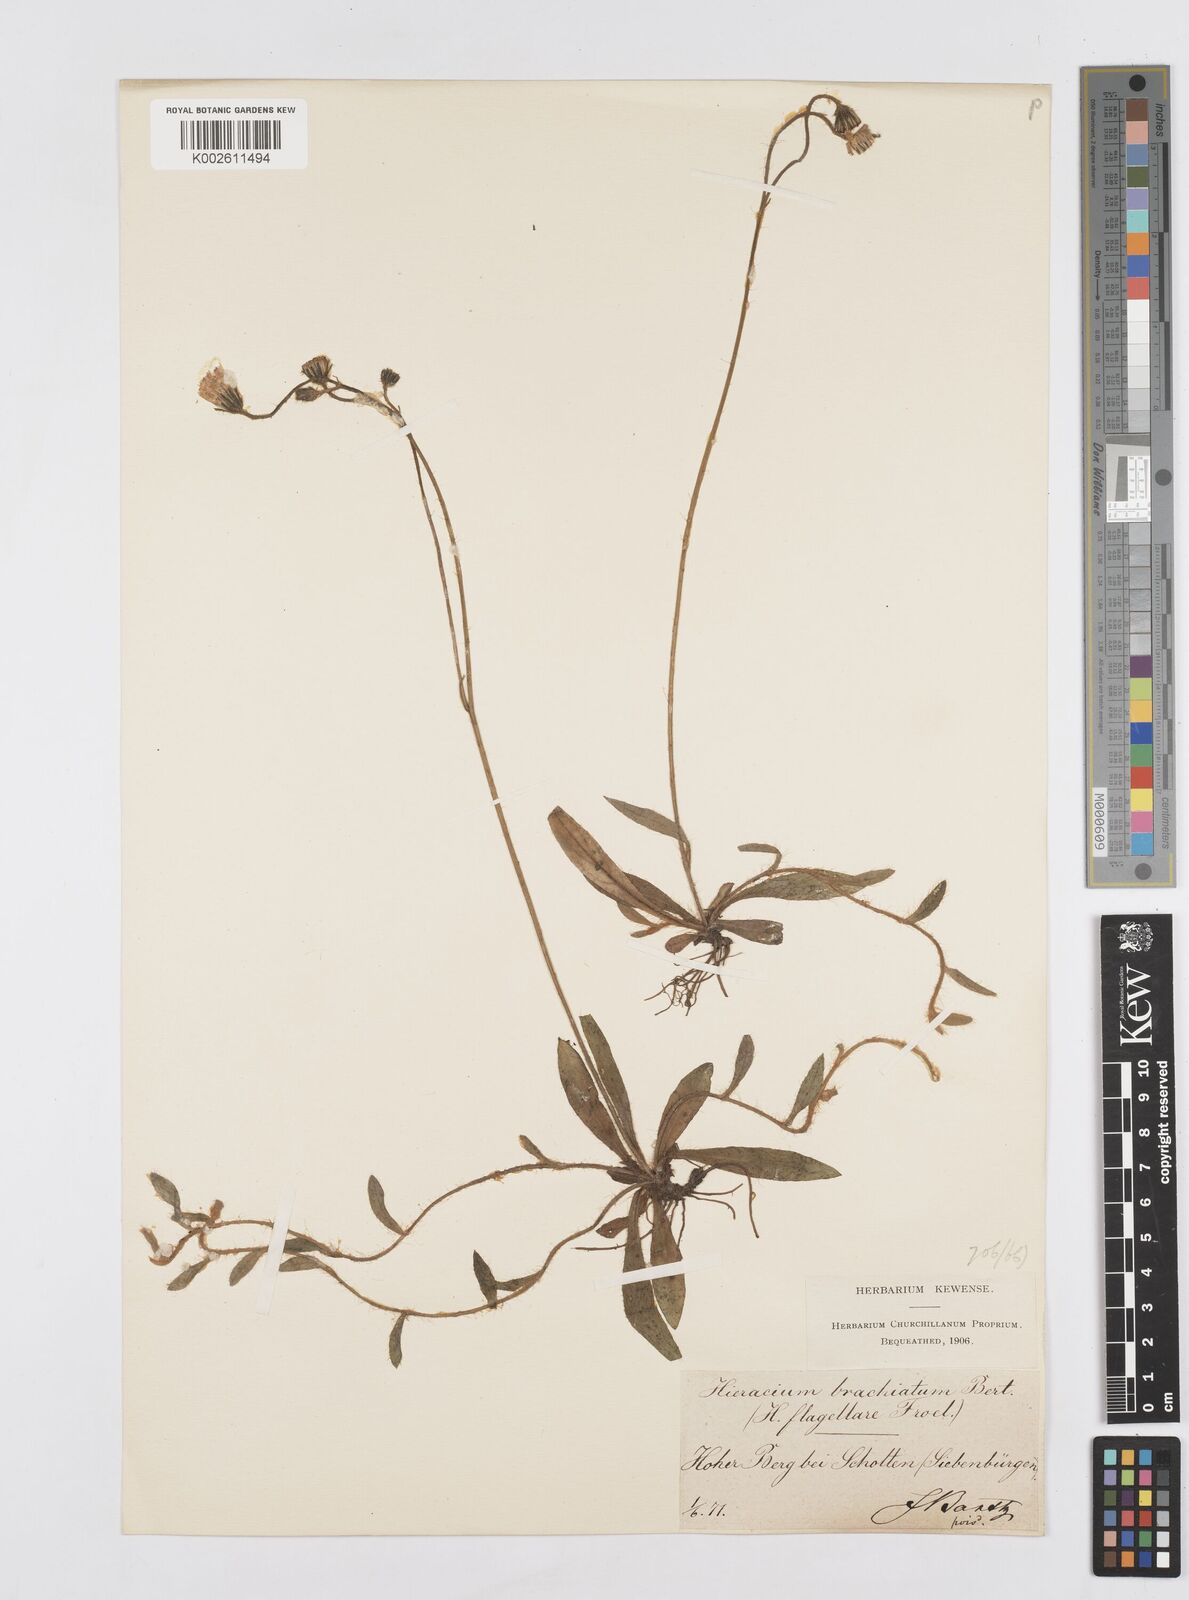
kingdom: Plantae
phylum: Tracheophyta
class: Magnoliopsida
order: Asterales
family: Asteraceae
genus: Pilosella
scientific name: Pilosella acutifolia
